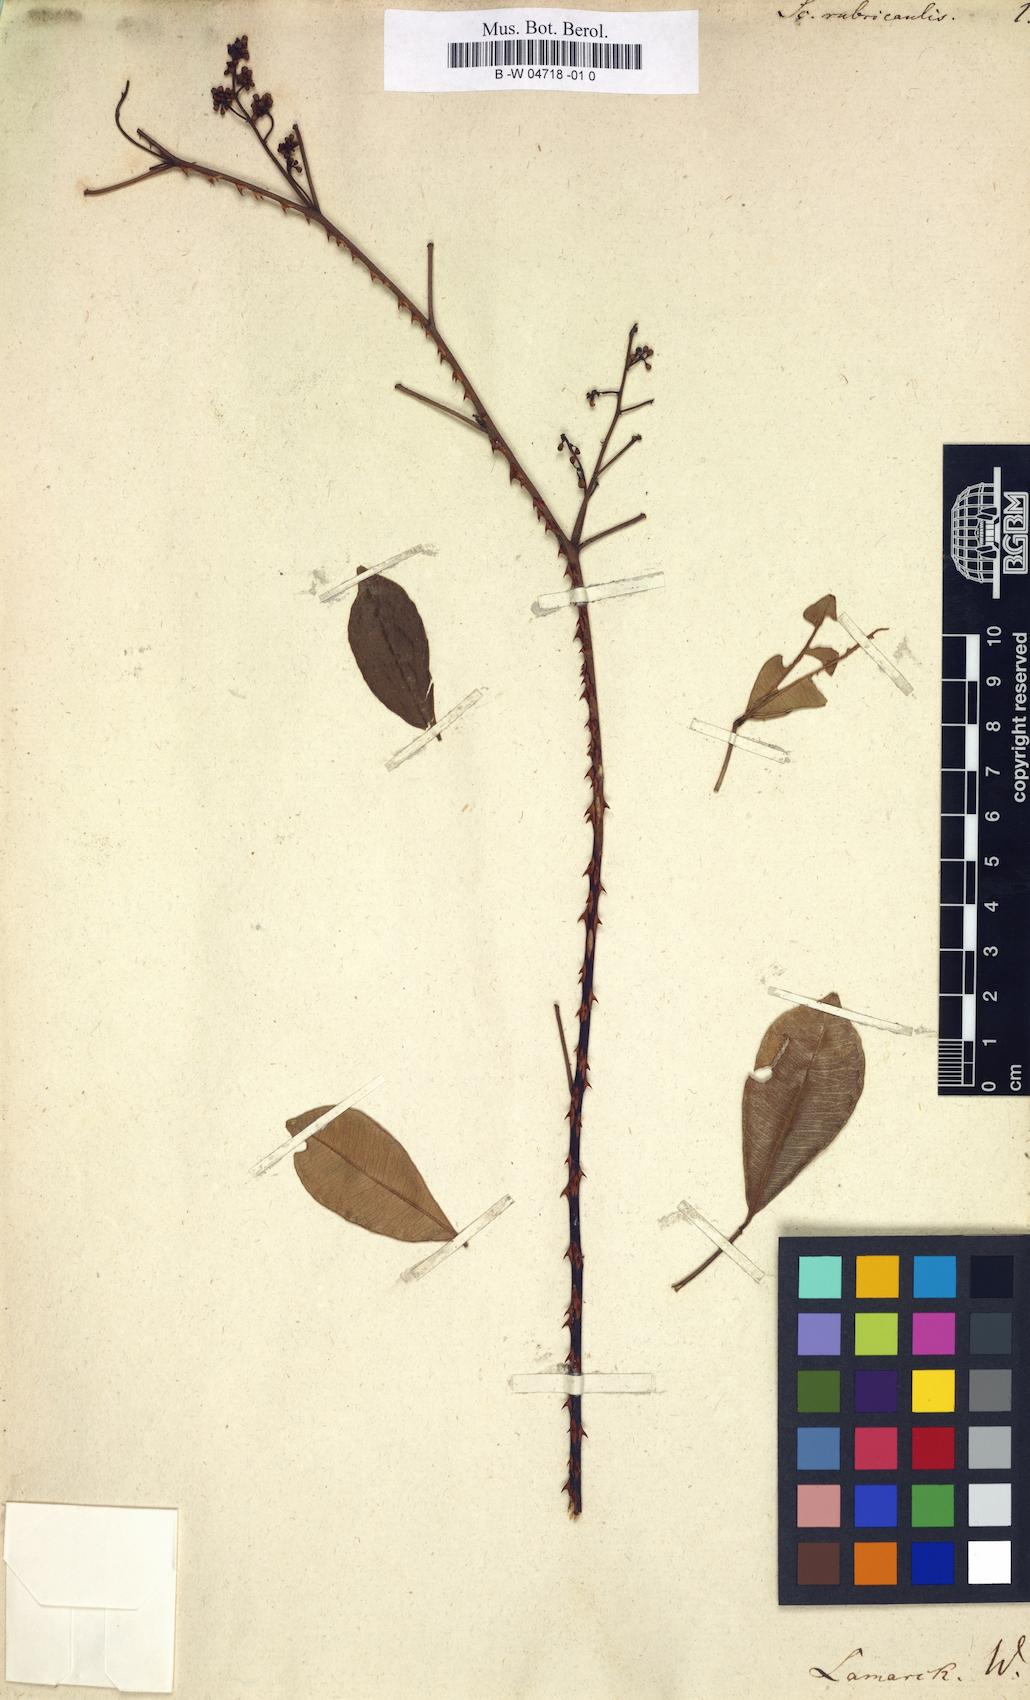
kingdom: Plantae
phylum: Tracheophyta
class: Magnoliopsida
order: Sapindales
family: Rutaceae
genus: Zanthoxylum
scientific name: Zanthoxylum asiaticum
